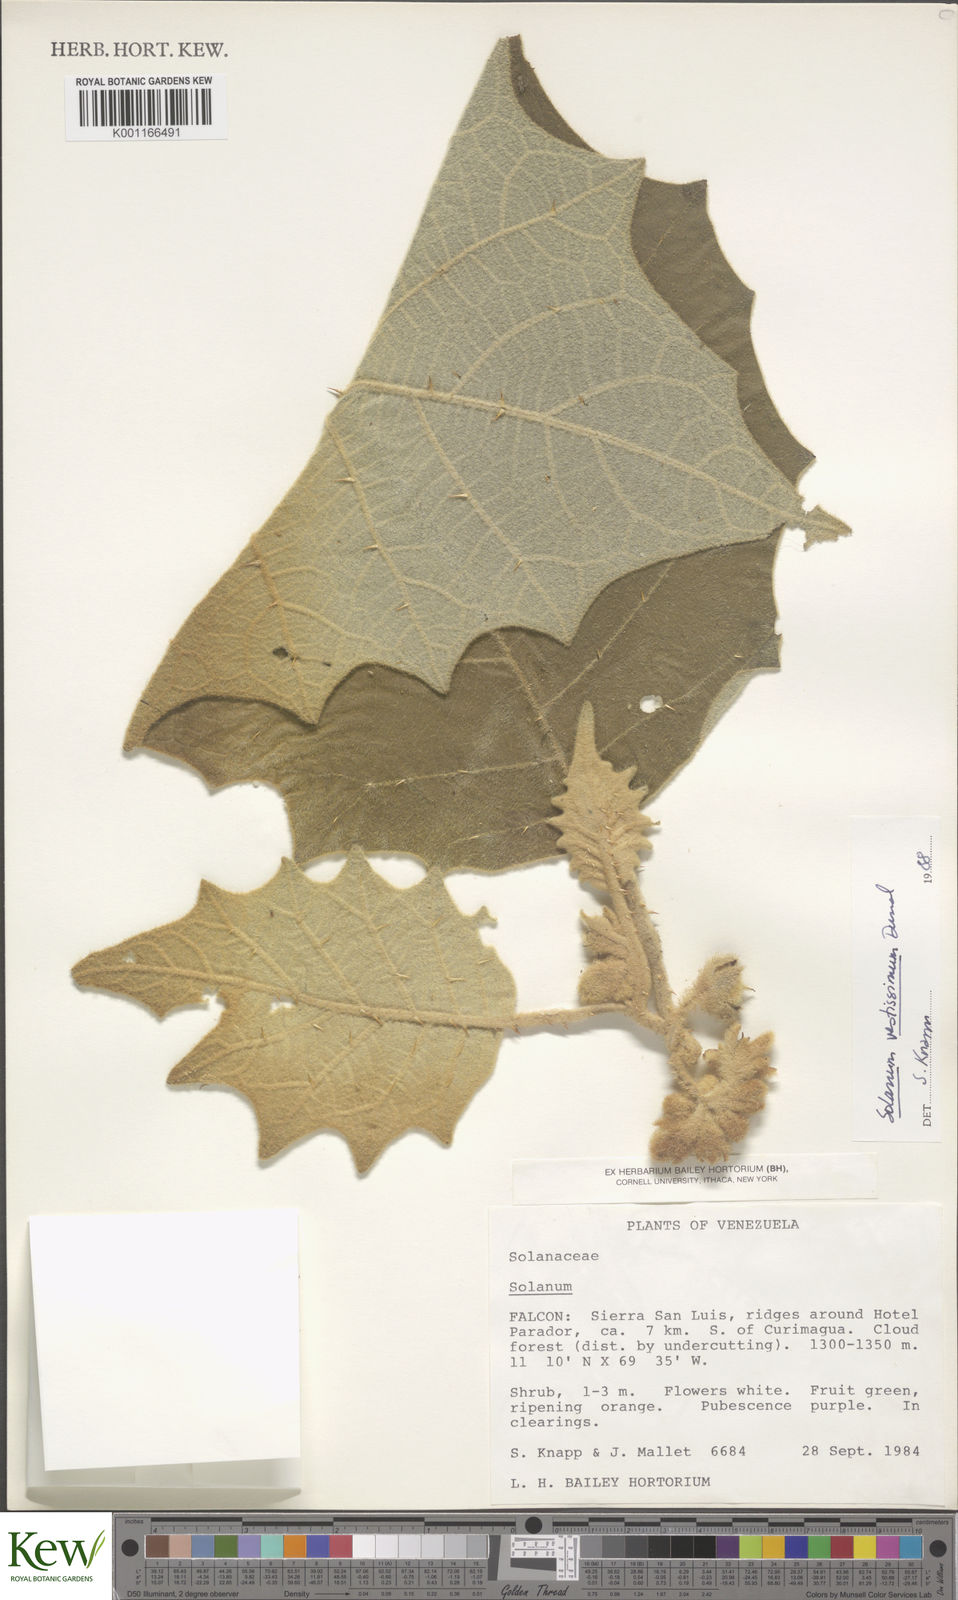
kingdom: Plantae
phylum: Tracheophyta
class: Magnoliopsida
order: Solanales
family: Solanaceae
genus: Solanum
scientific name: Solanum vestissimum
